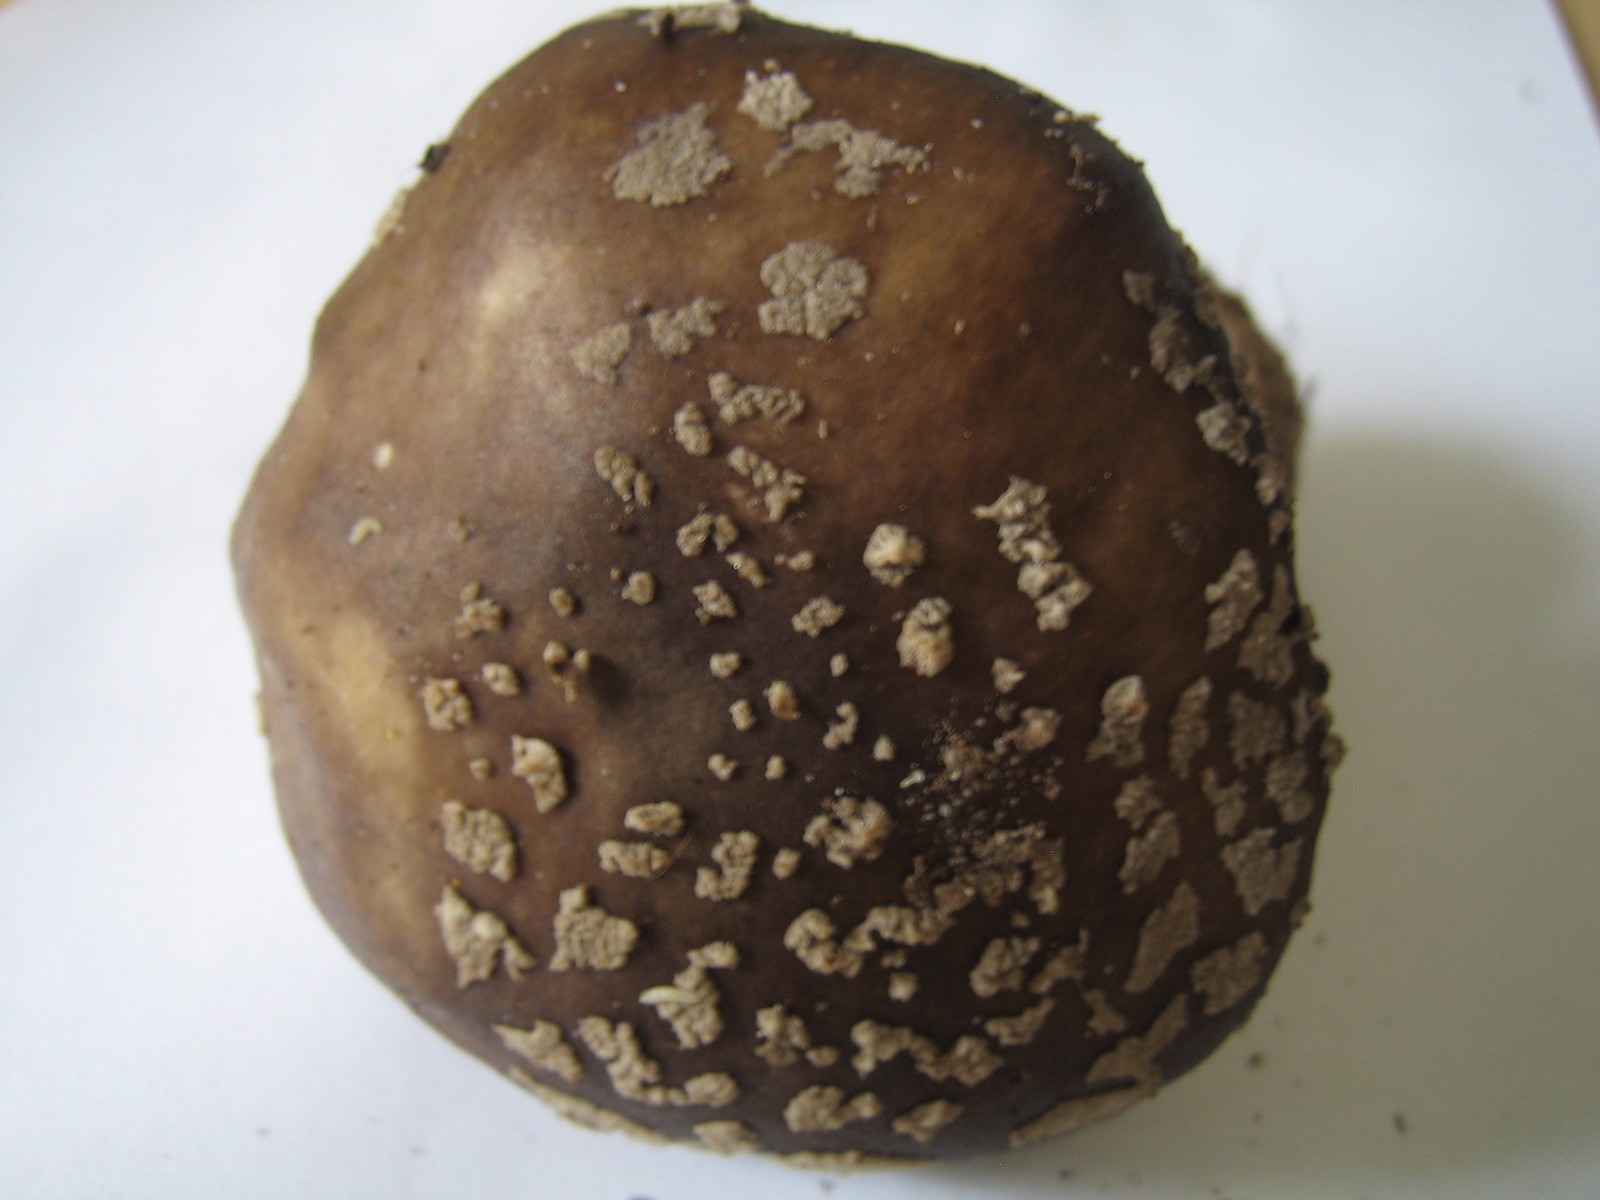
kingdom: Fungi
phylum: Basidiomycota
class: Agaricomycetes
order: Agaricales
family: Amanitaceae
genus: Amanita
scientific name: Amanita
